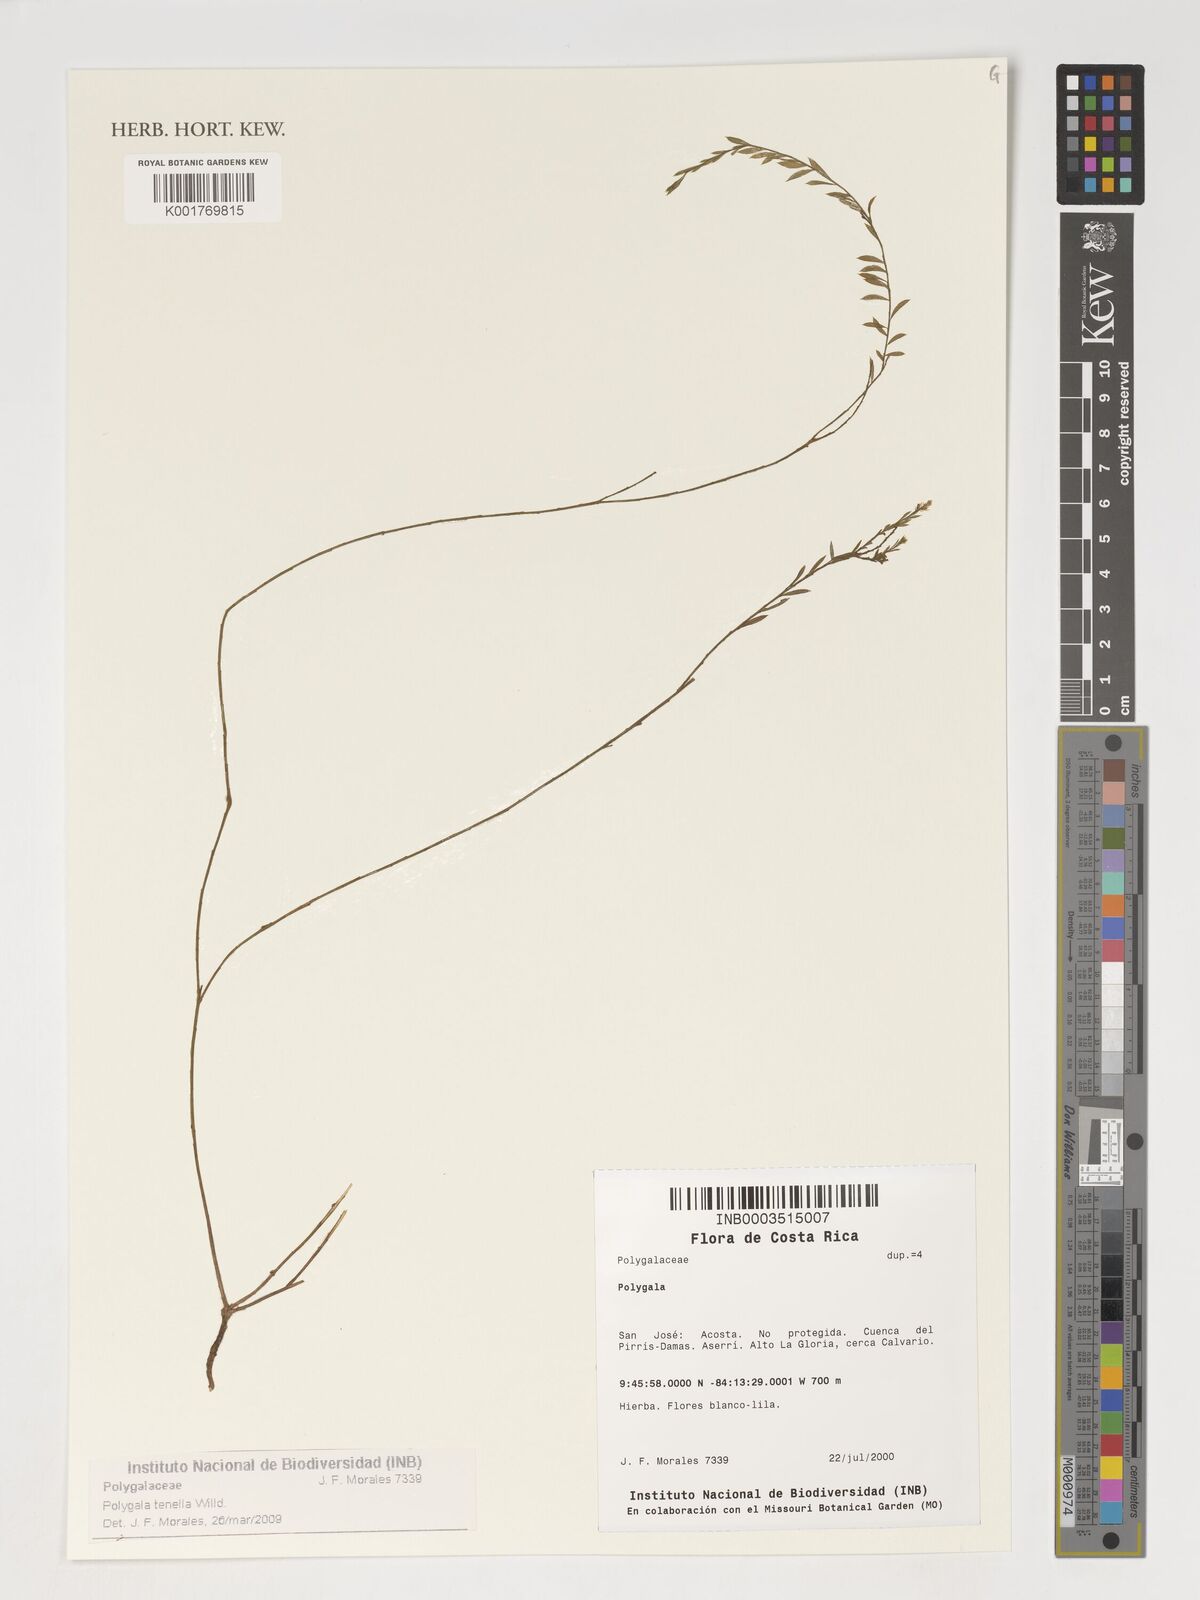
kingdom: Plantae
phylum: Tracheophyta
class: Magnoliopsida
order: Fabales
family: Polygalaceae
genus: Polygala
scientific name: Polygala tenella
